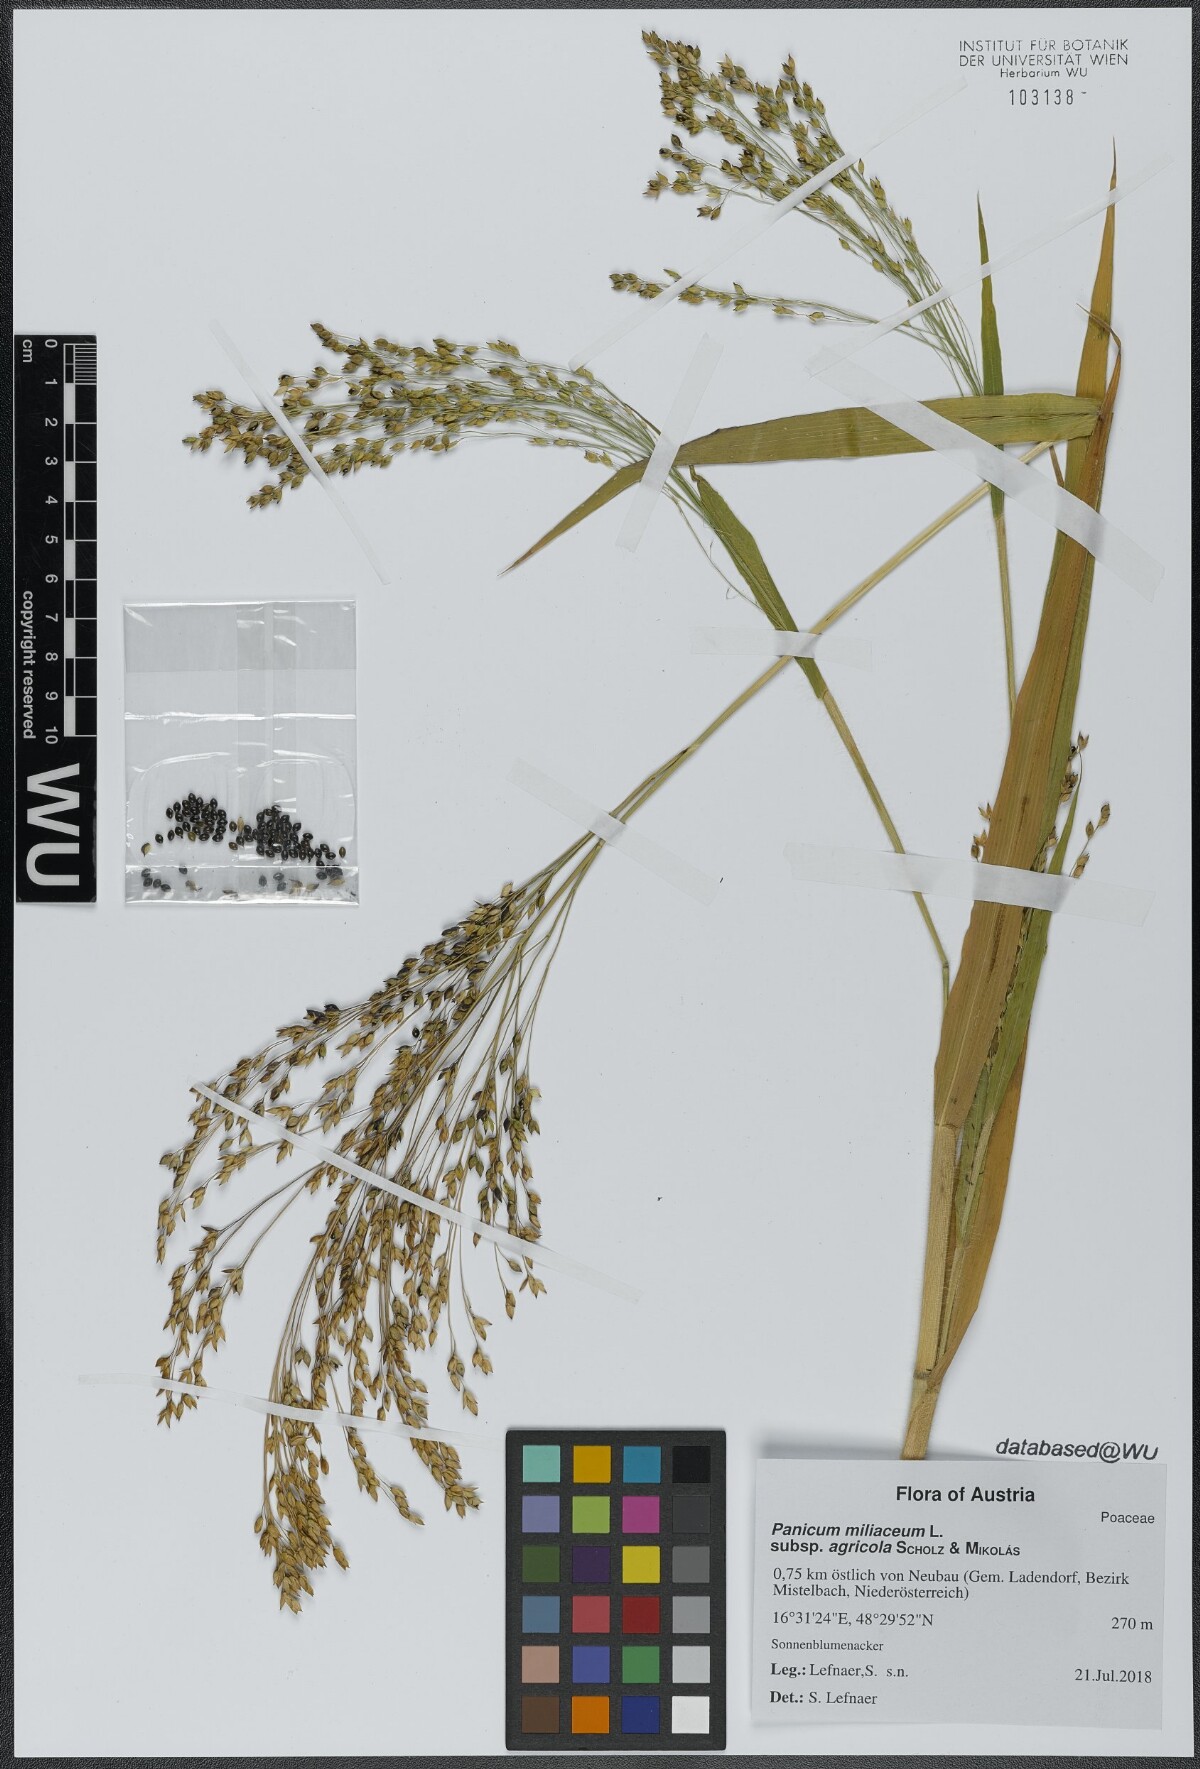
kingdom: Plantae
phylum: Tracheophyta
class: Liliopsida
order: Poales
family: Poaceae
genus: Panicum
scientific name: Panicum miliaceum
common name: Common millet
